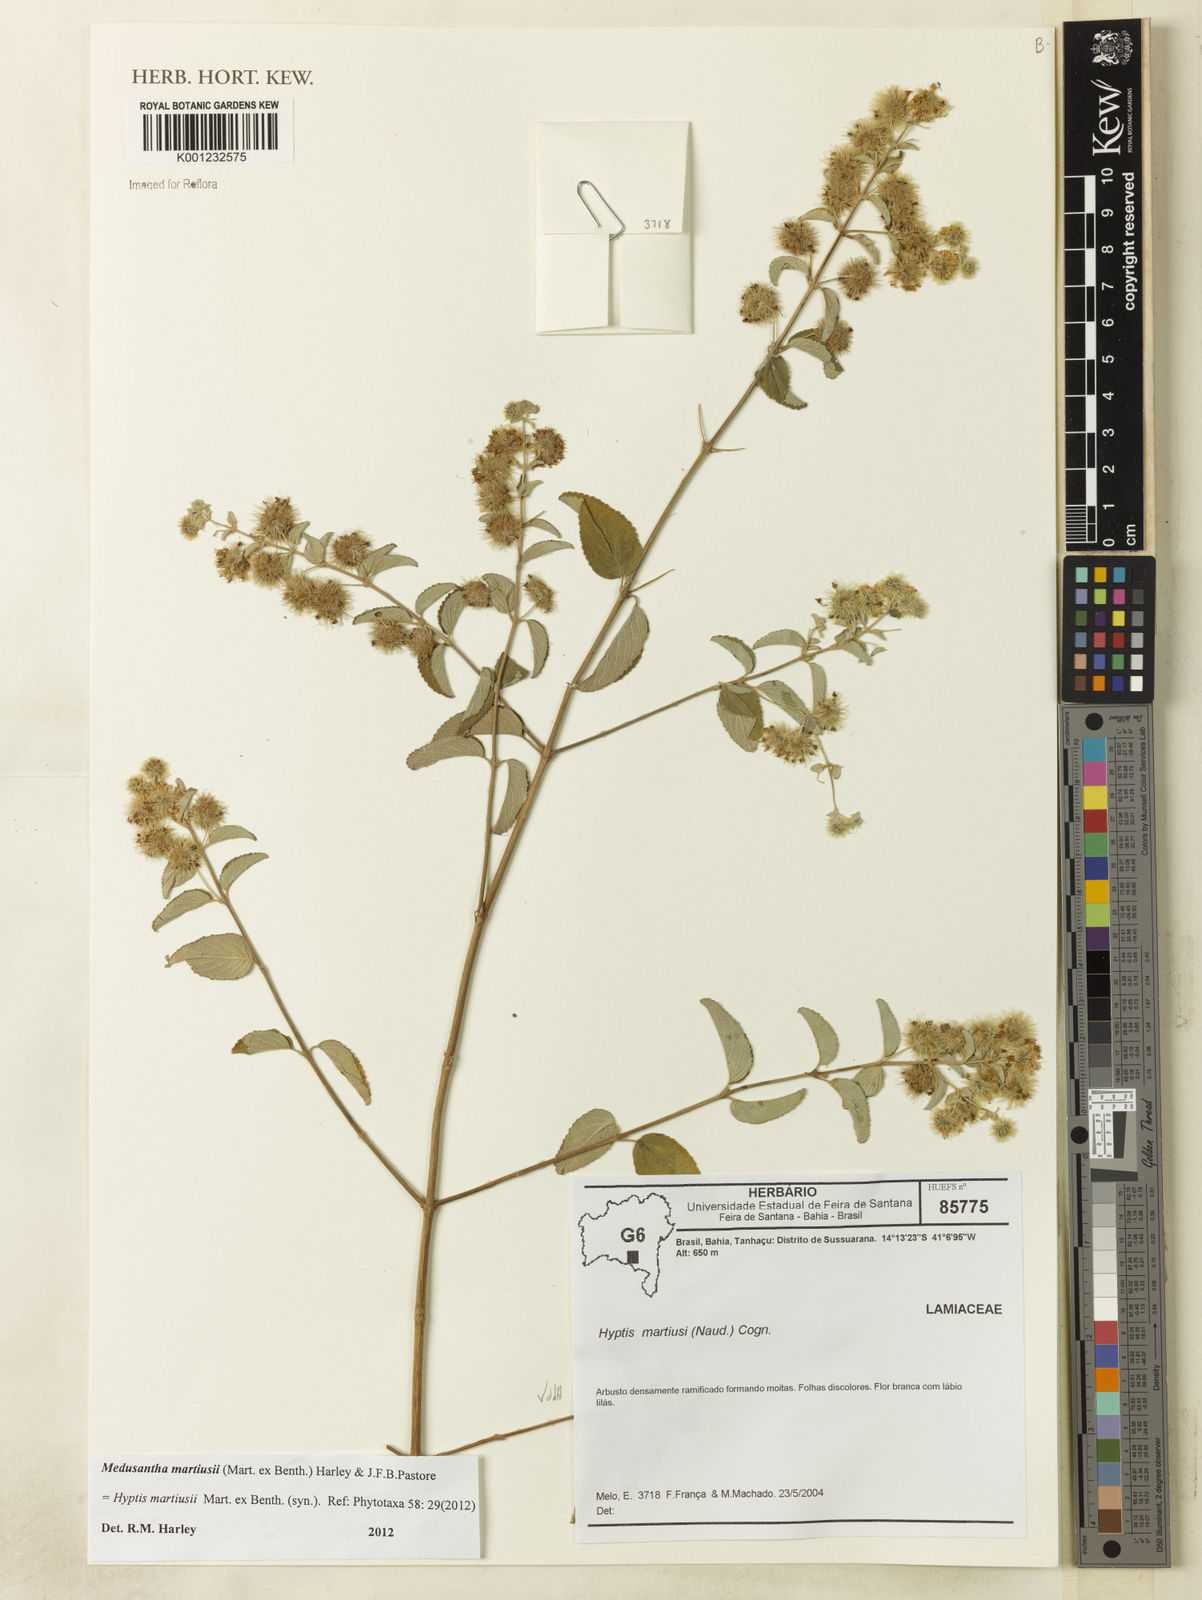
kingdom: Plantae
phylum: Tracheophyta
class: Magnoliopsida
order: Lamiales
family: Lamiaceae
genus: Medusantha
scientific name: Medusantha martiusii
